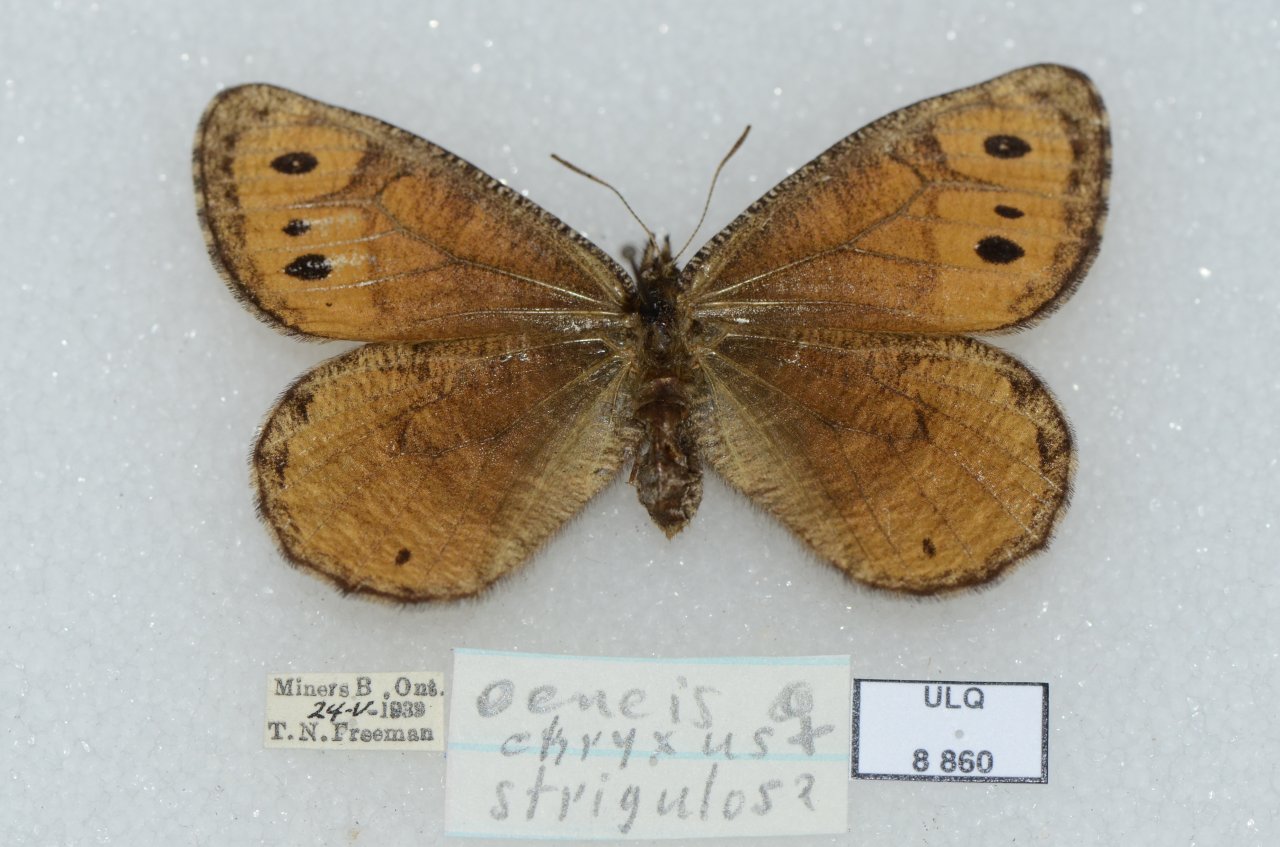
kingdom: Animalia
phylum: Arthropoda
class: Insecta
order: Lepidoptera
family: Nymphalidae
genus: Oeneis
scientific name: Oeneis chryxus
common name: Chryxus Arctic
